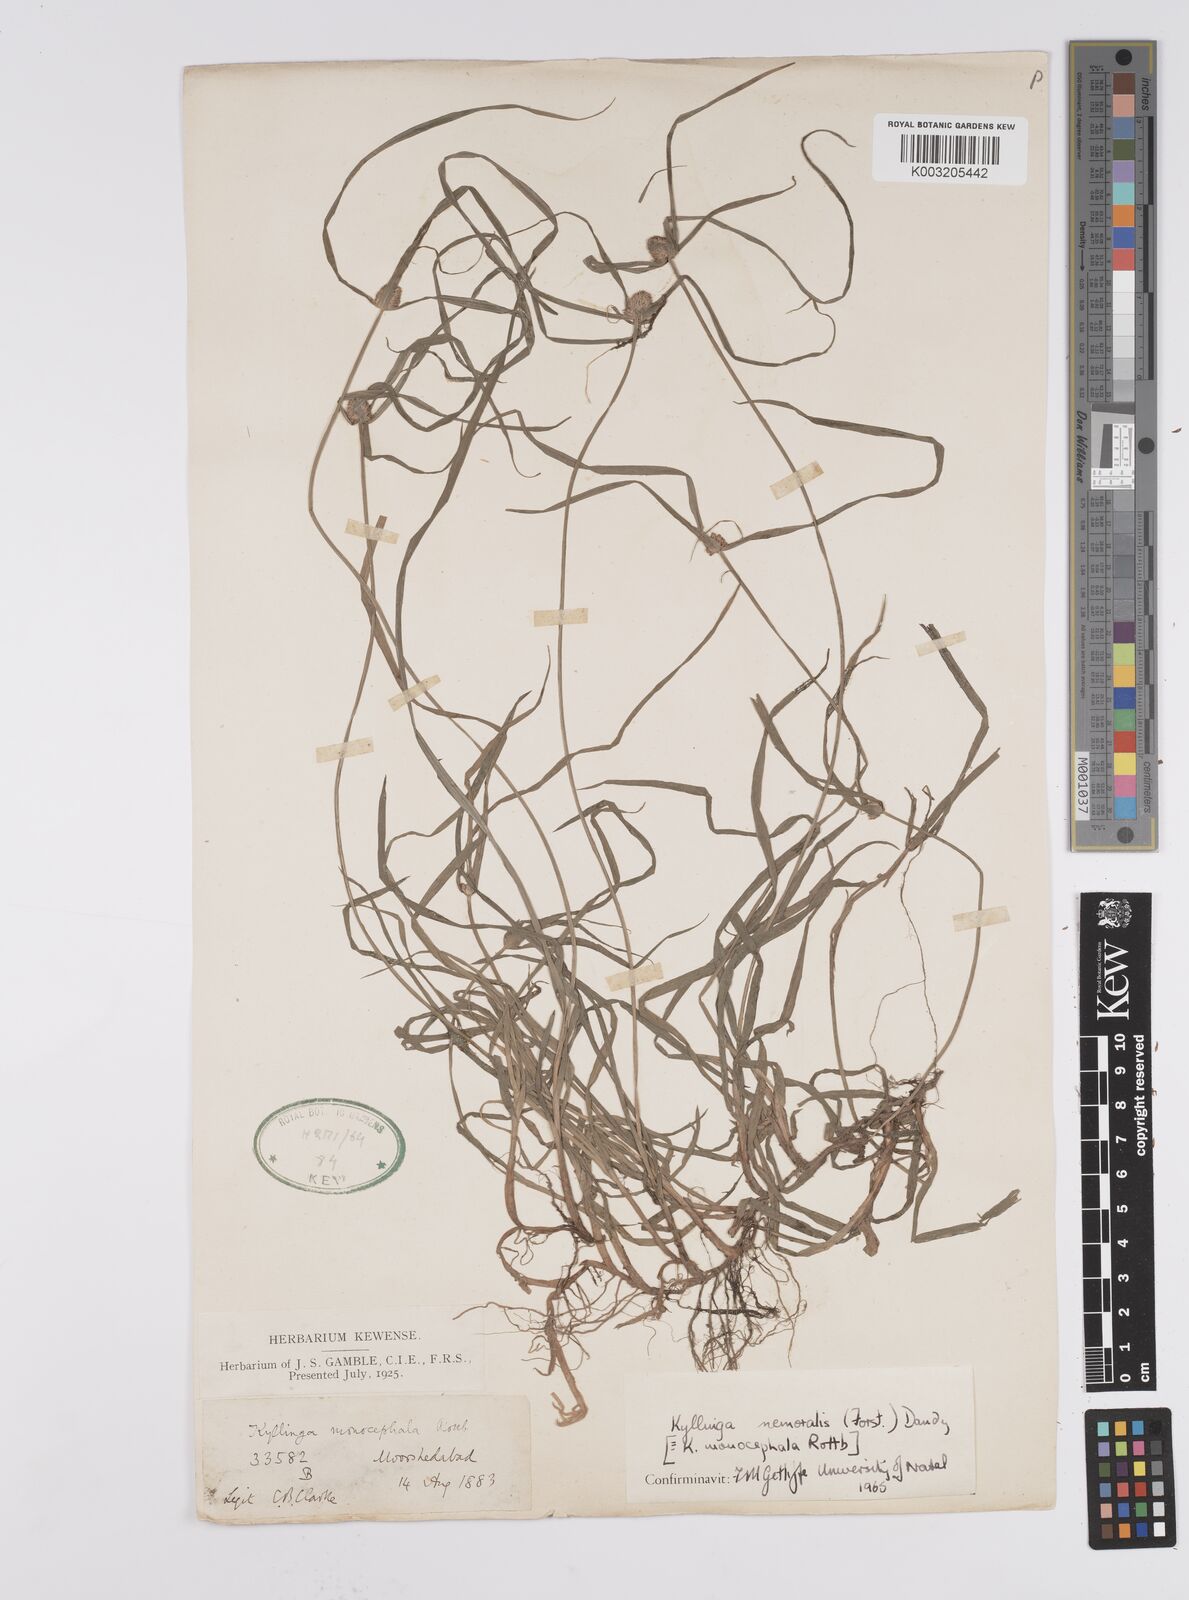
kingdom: Plantae
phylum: Tracheophyta
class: Liliopsida
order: Poales
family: Cyperaceae
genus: Cyperus
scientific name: Cyperus nemoralis
